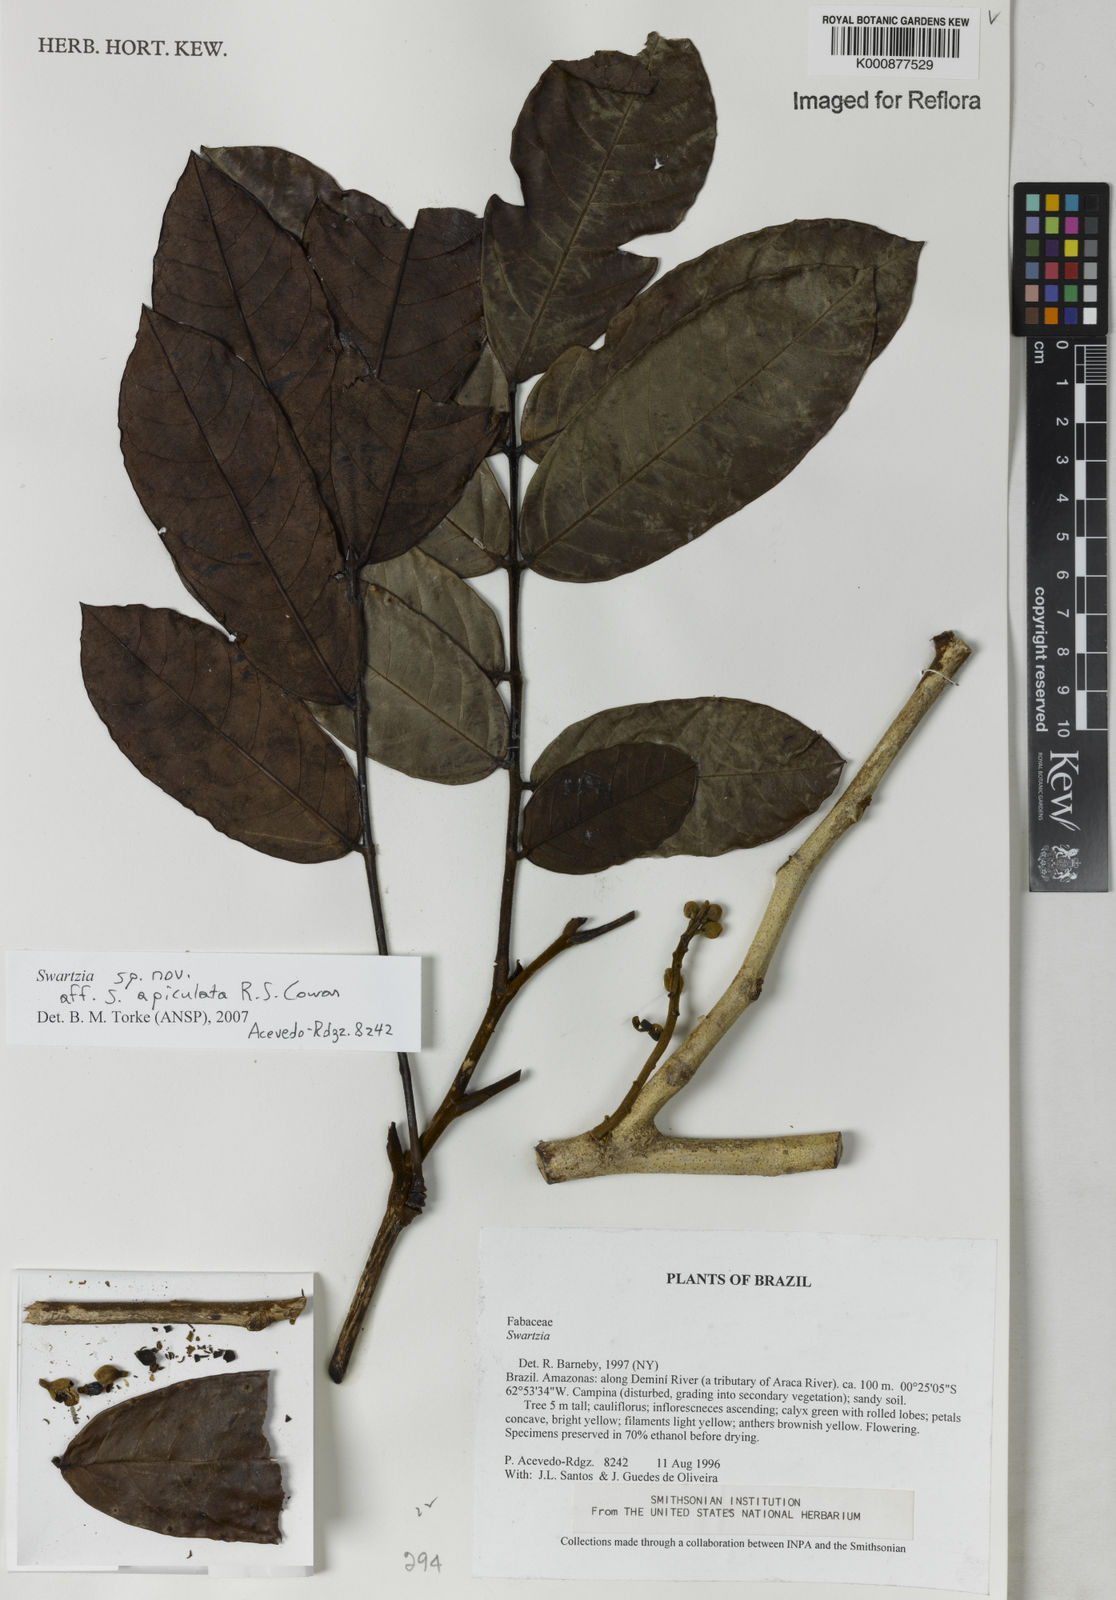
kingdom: Plantae
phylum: Tracheophyta
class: Magnoliopsida
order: Fabales
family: Fabaceae
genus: Swartzia
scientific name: Swartzia apiculata
